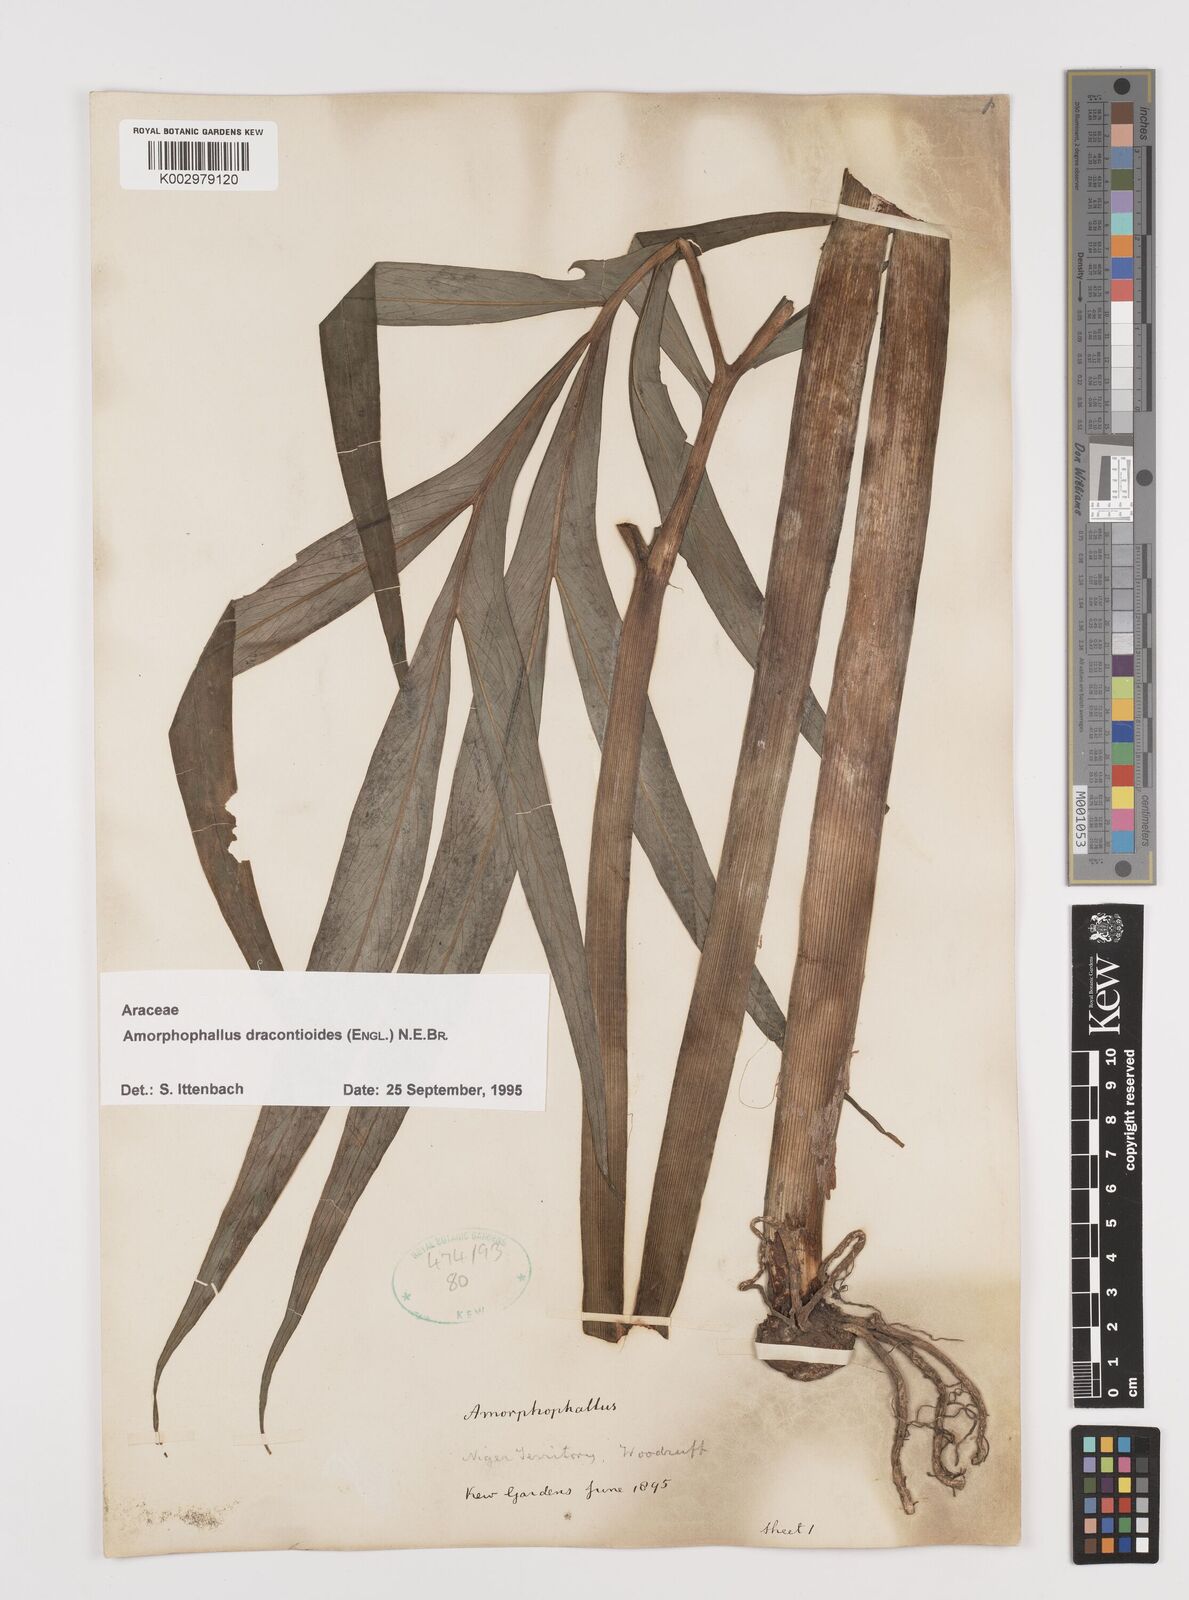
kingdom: Plantae
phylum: Tracheophyta
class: Liliopsida
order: Alismatales
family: Araceae
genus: Amorphophallus
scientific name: Amorphophallus dracontioides
